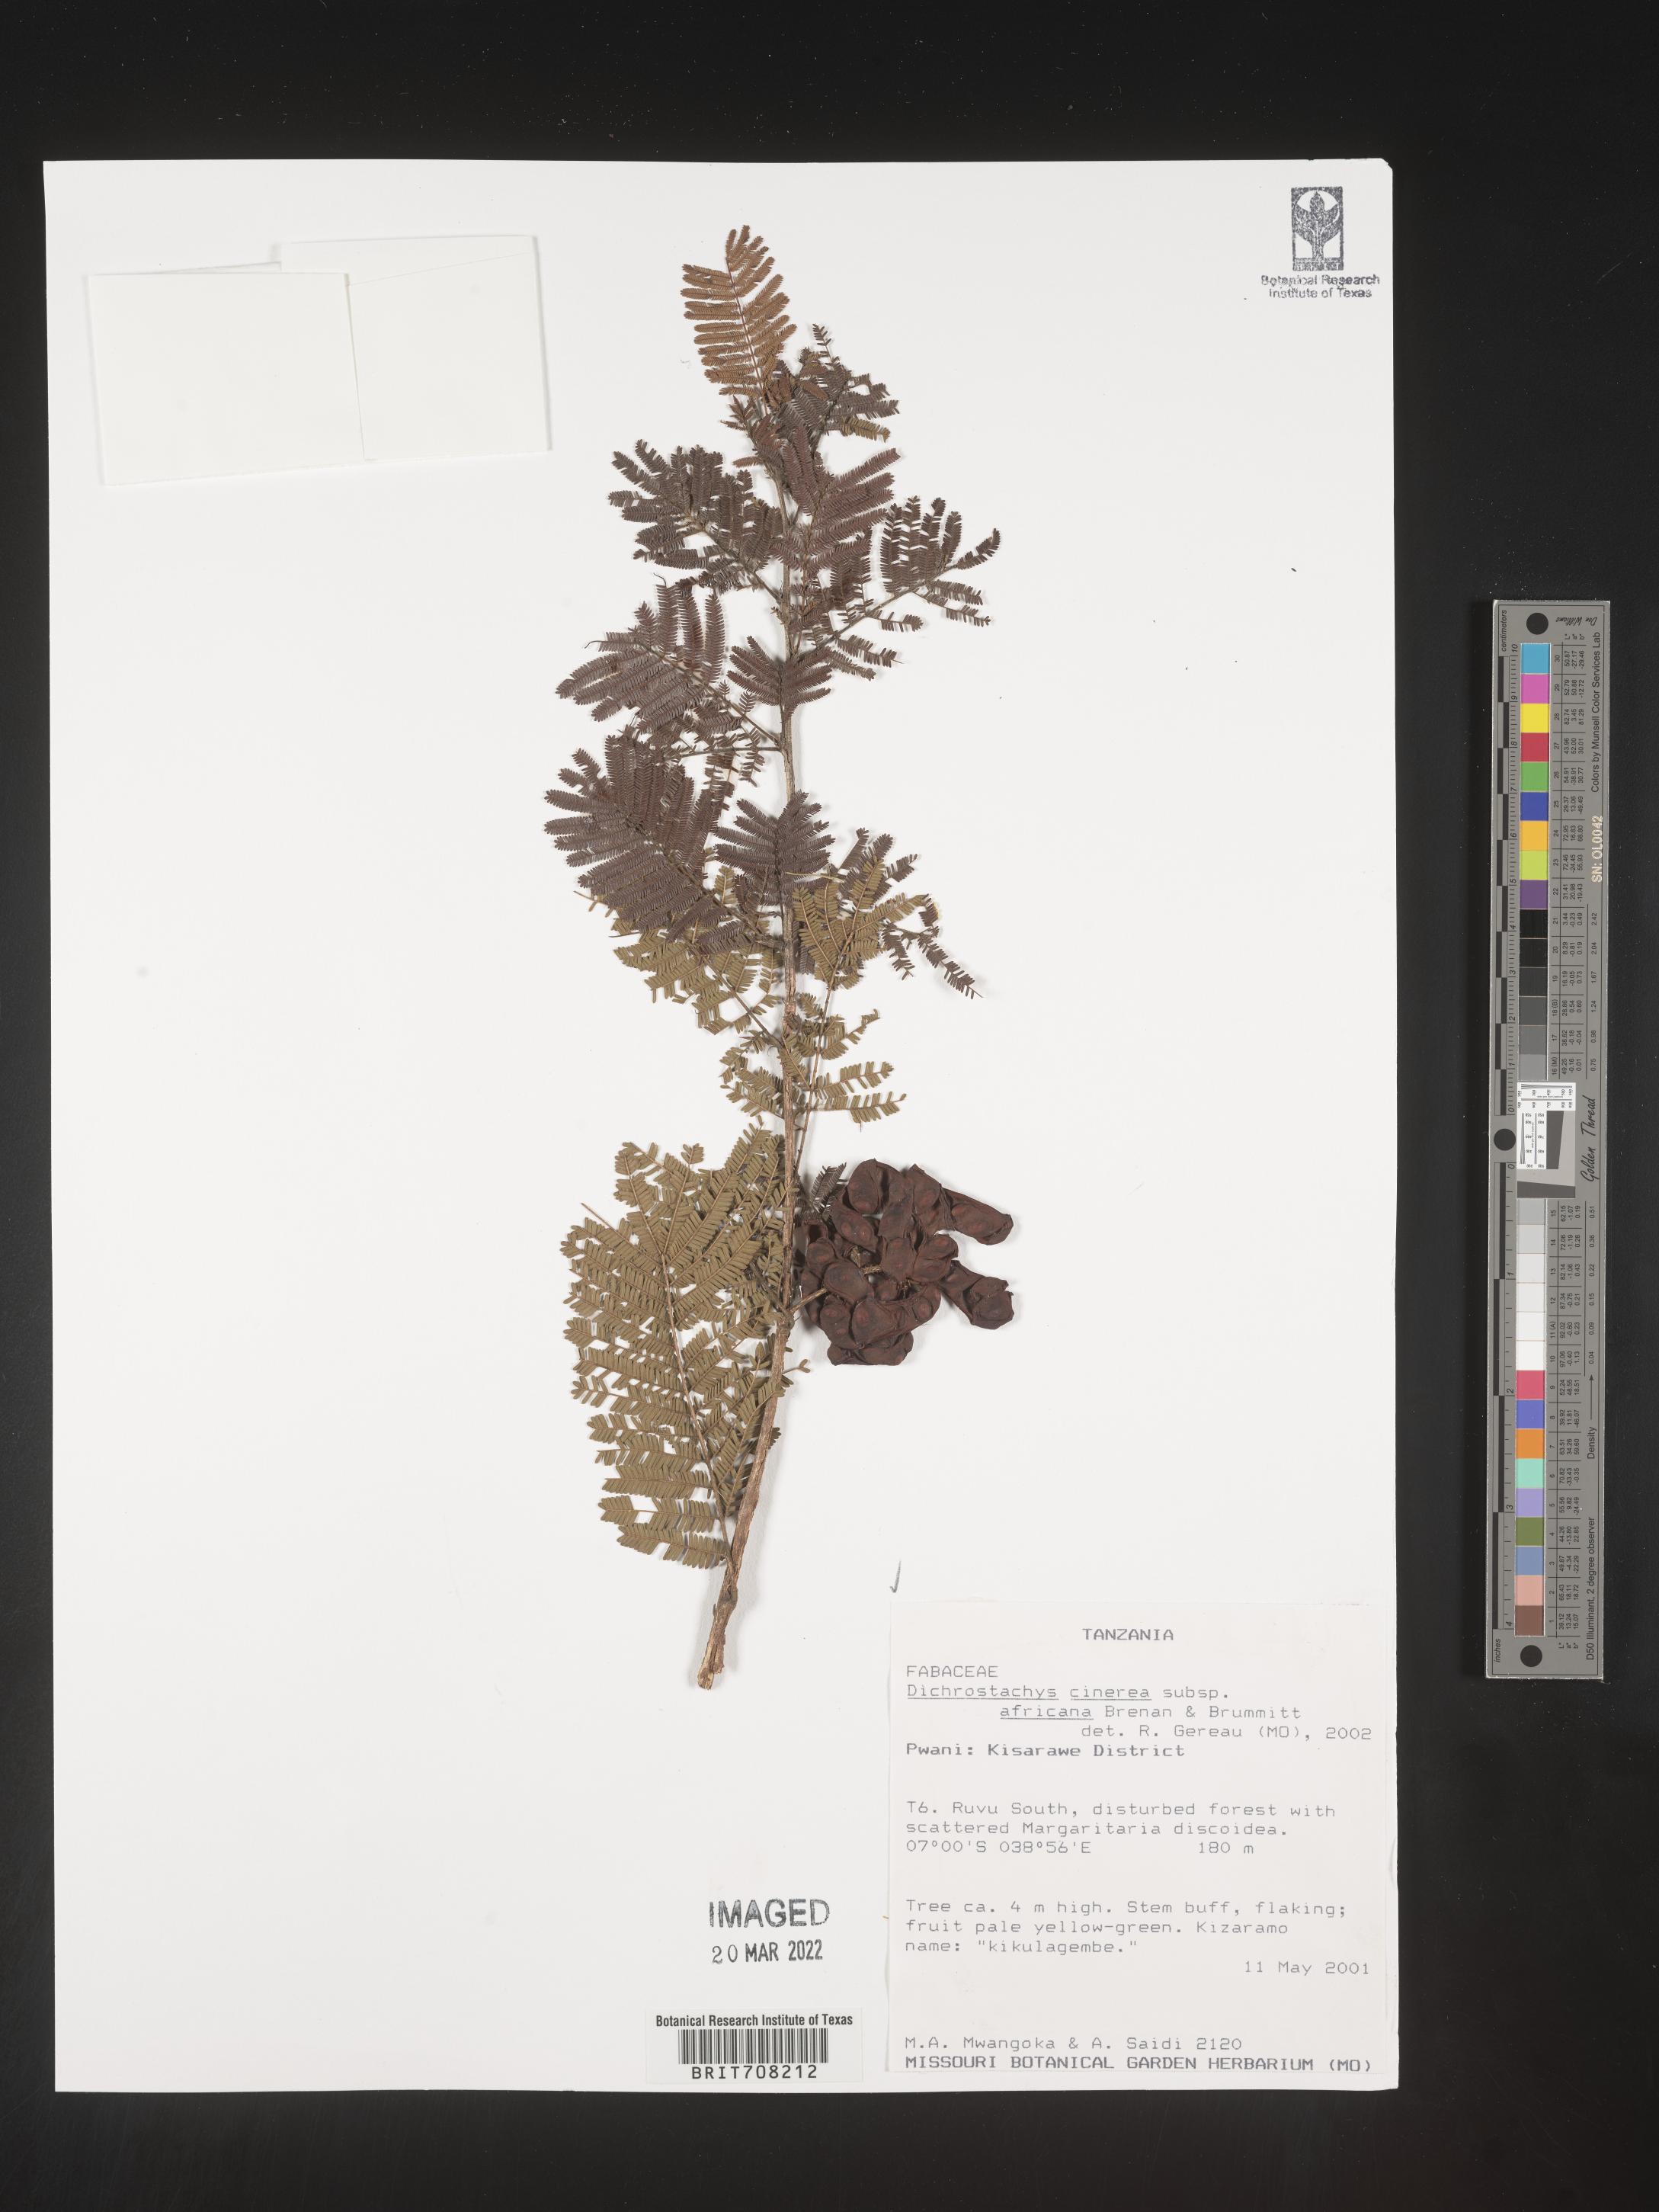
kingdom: Plantae
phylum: Tracheophyta
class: Magnoliopsida
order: Fabales
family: Fabaceae
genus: Dichrostachys
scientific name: Dichrostachys
